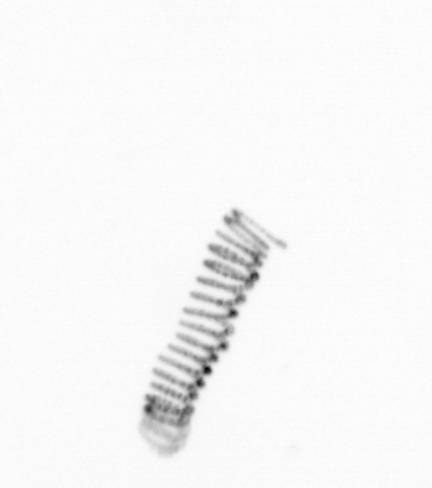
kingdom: Chromista
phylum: Ochrophyta
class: Bacillariophyceae
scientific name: Bacillariophyceae
